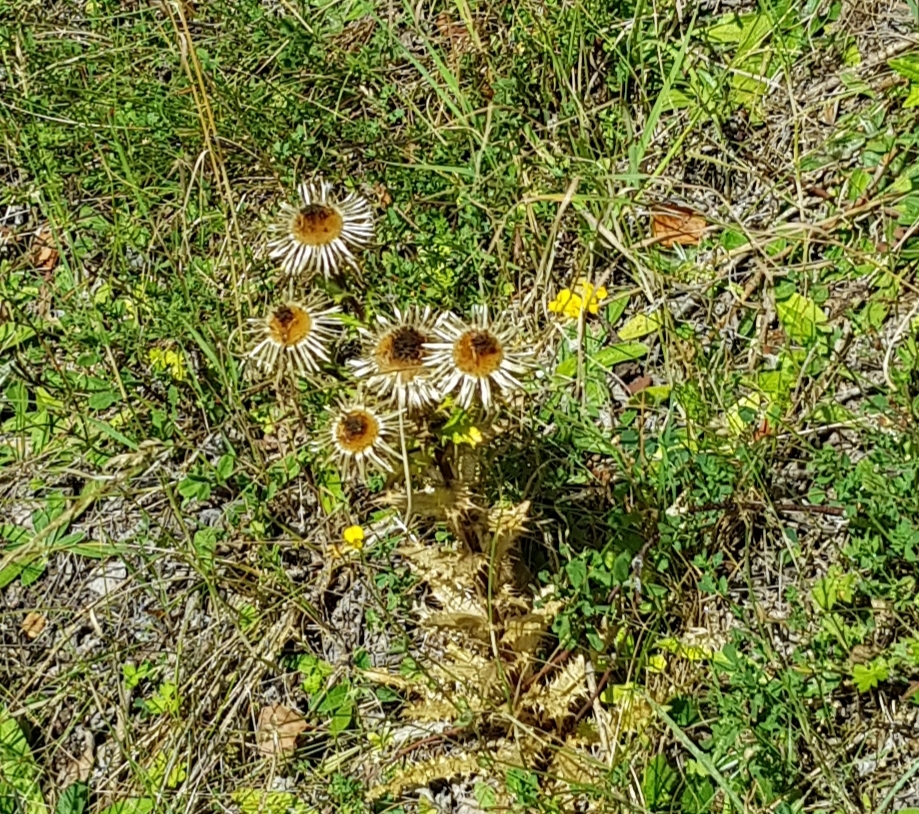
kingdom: Plantae
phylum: Tracheophyta
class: Magnoliopsida
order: Asterales
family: Asteraceae
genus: Carlina
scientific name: Carlina vulgaris
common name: Bakketidsel
